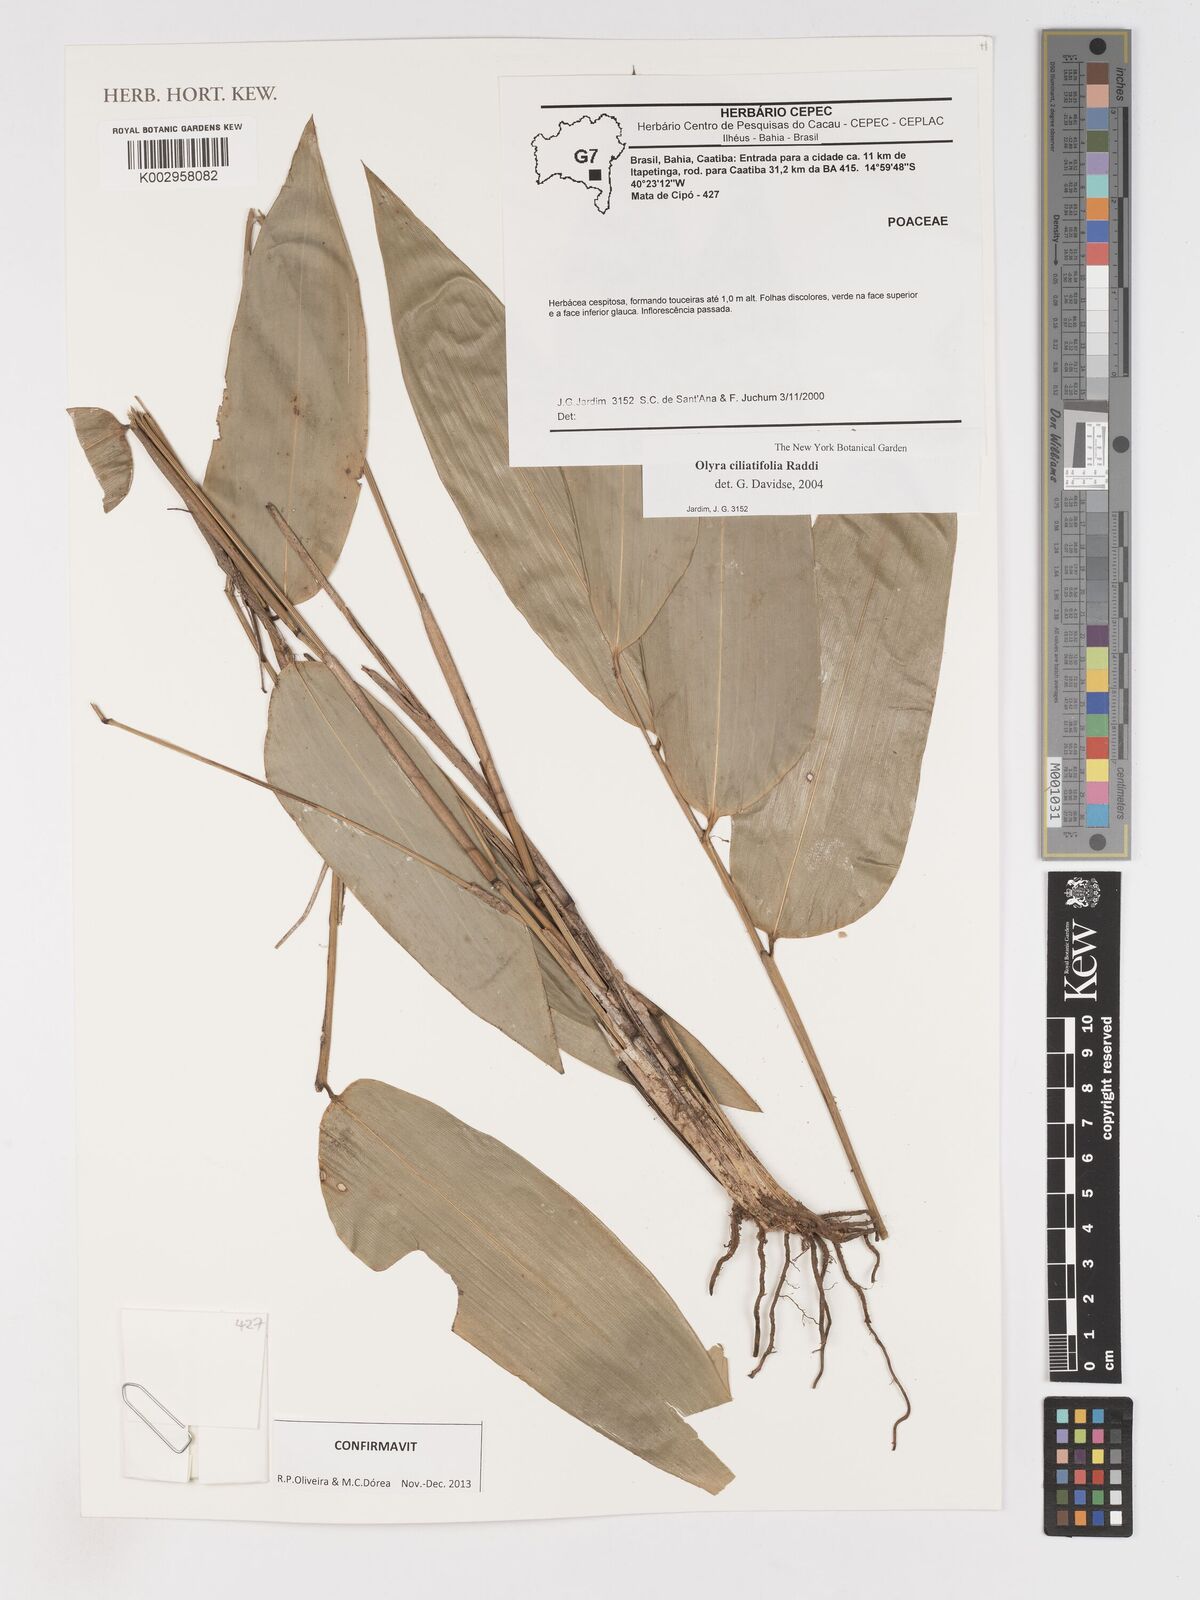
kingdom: Plantae
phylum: Tracheophyta
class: Liliopsida
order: Poales
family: Poaceae
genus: Olyra
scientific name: Olyra ciliatifolia
